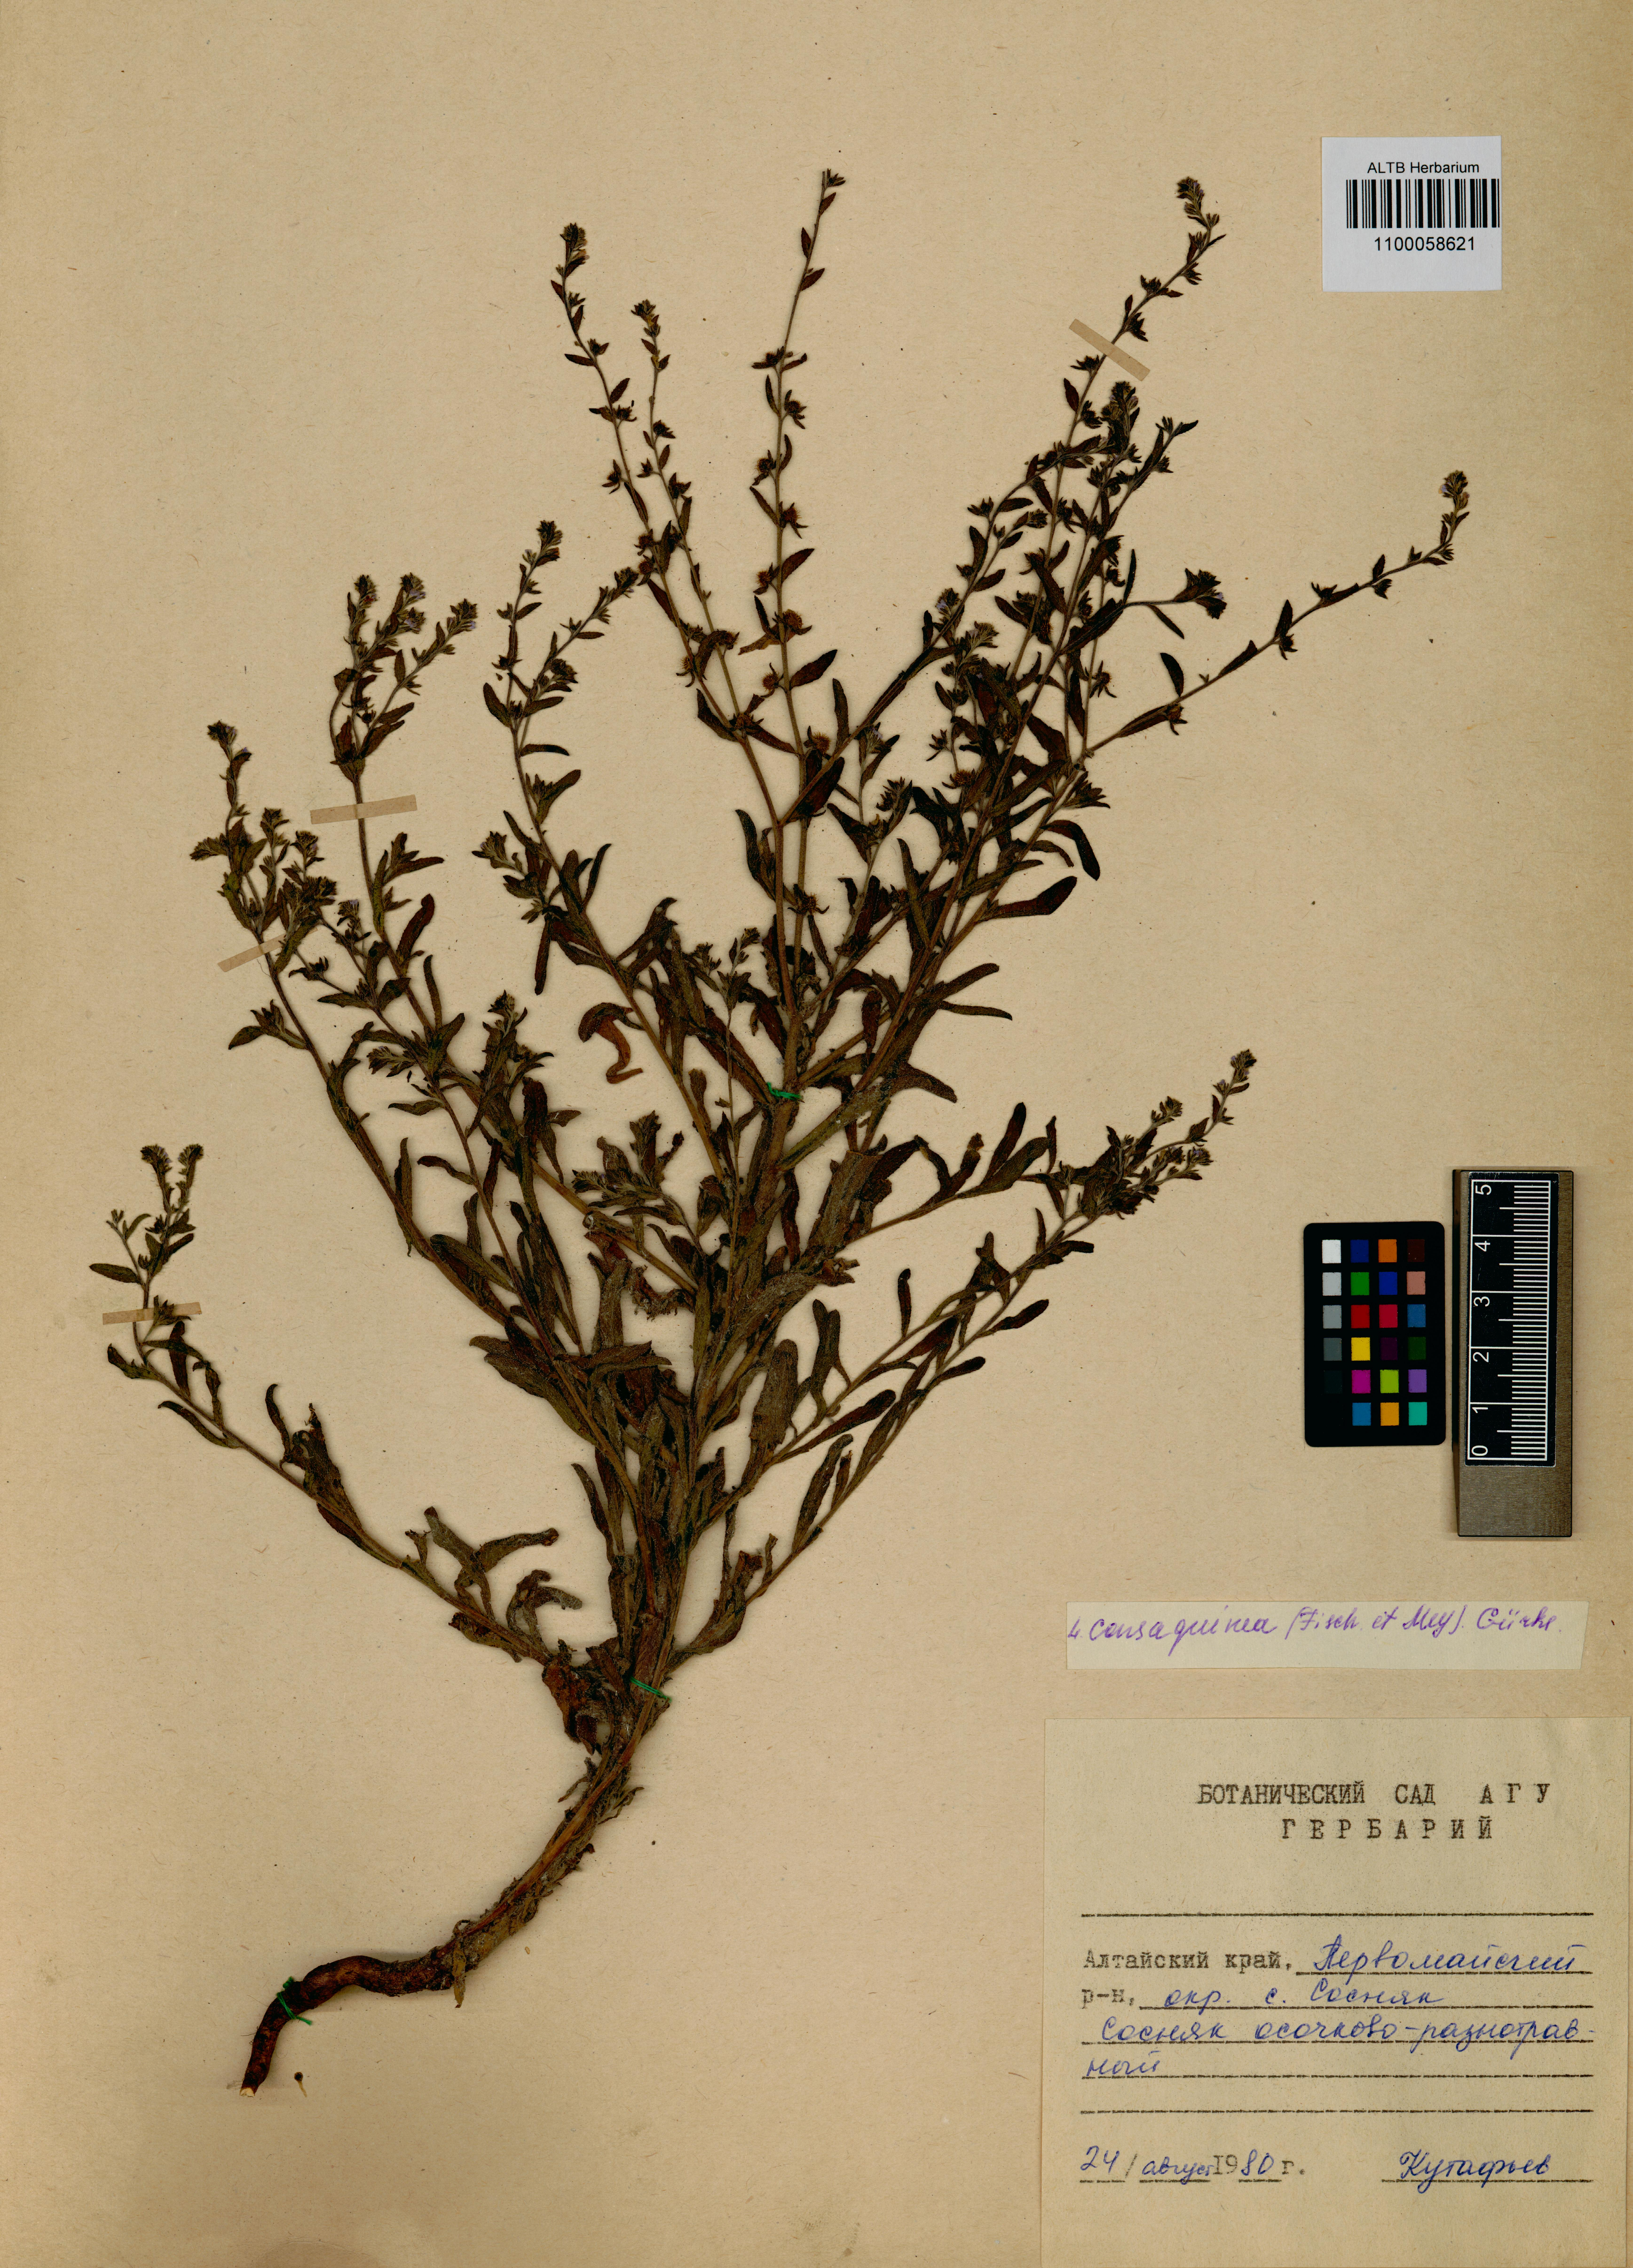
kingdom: Plantae
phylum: Tracheophyta
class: Magnoliopsida
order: Boraginales
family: Boraginaceae
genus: Lappula
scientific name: Lappula squarrosa
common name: European stickseed
